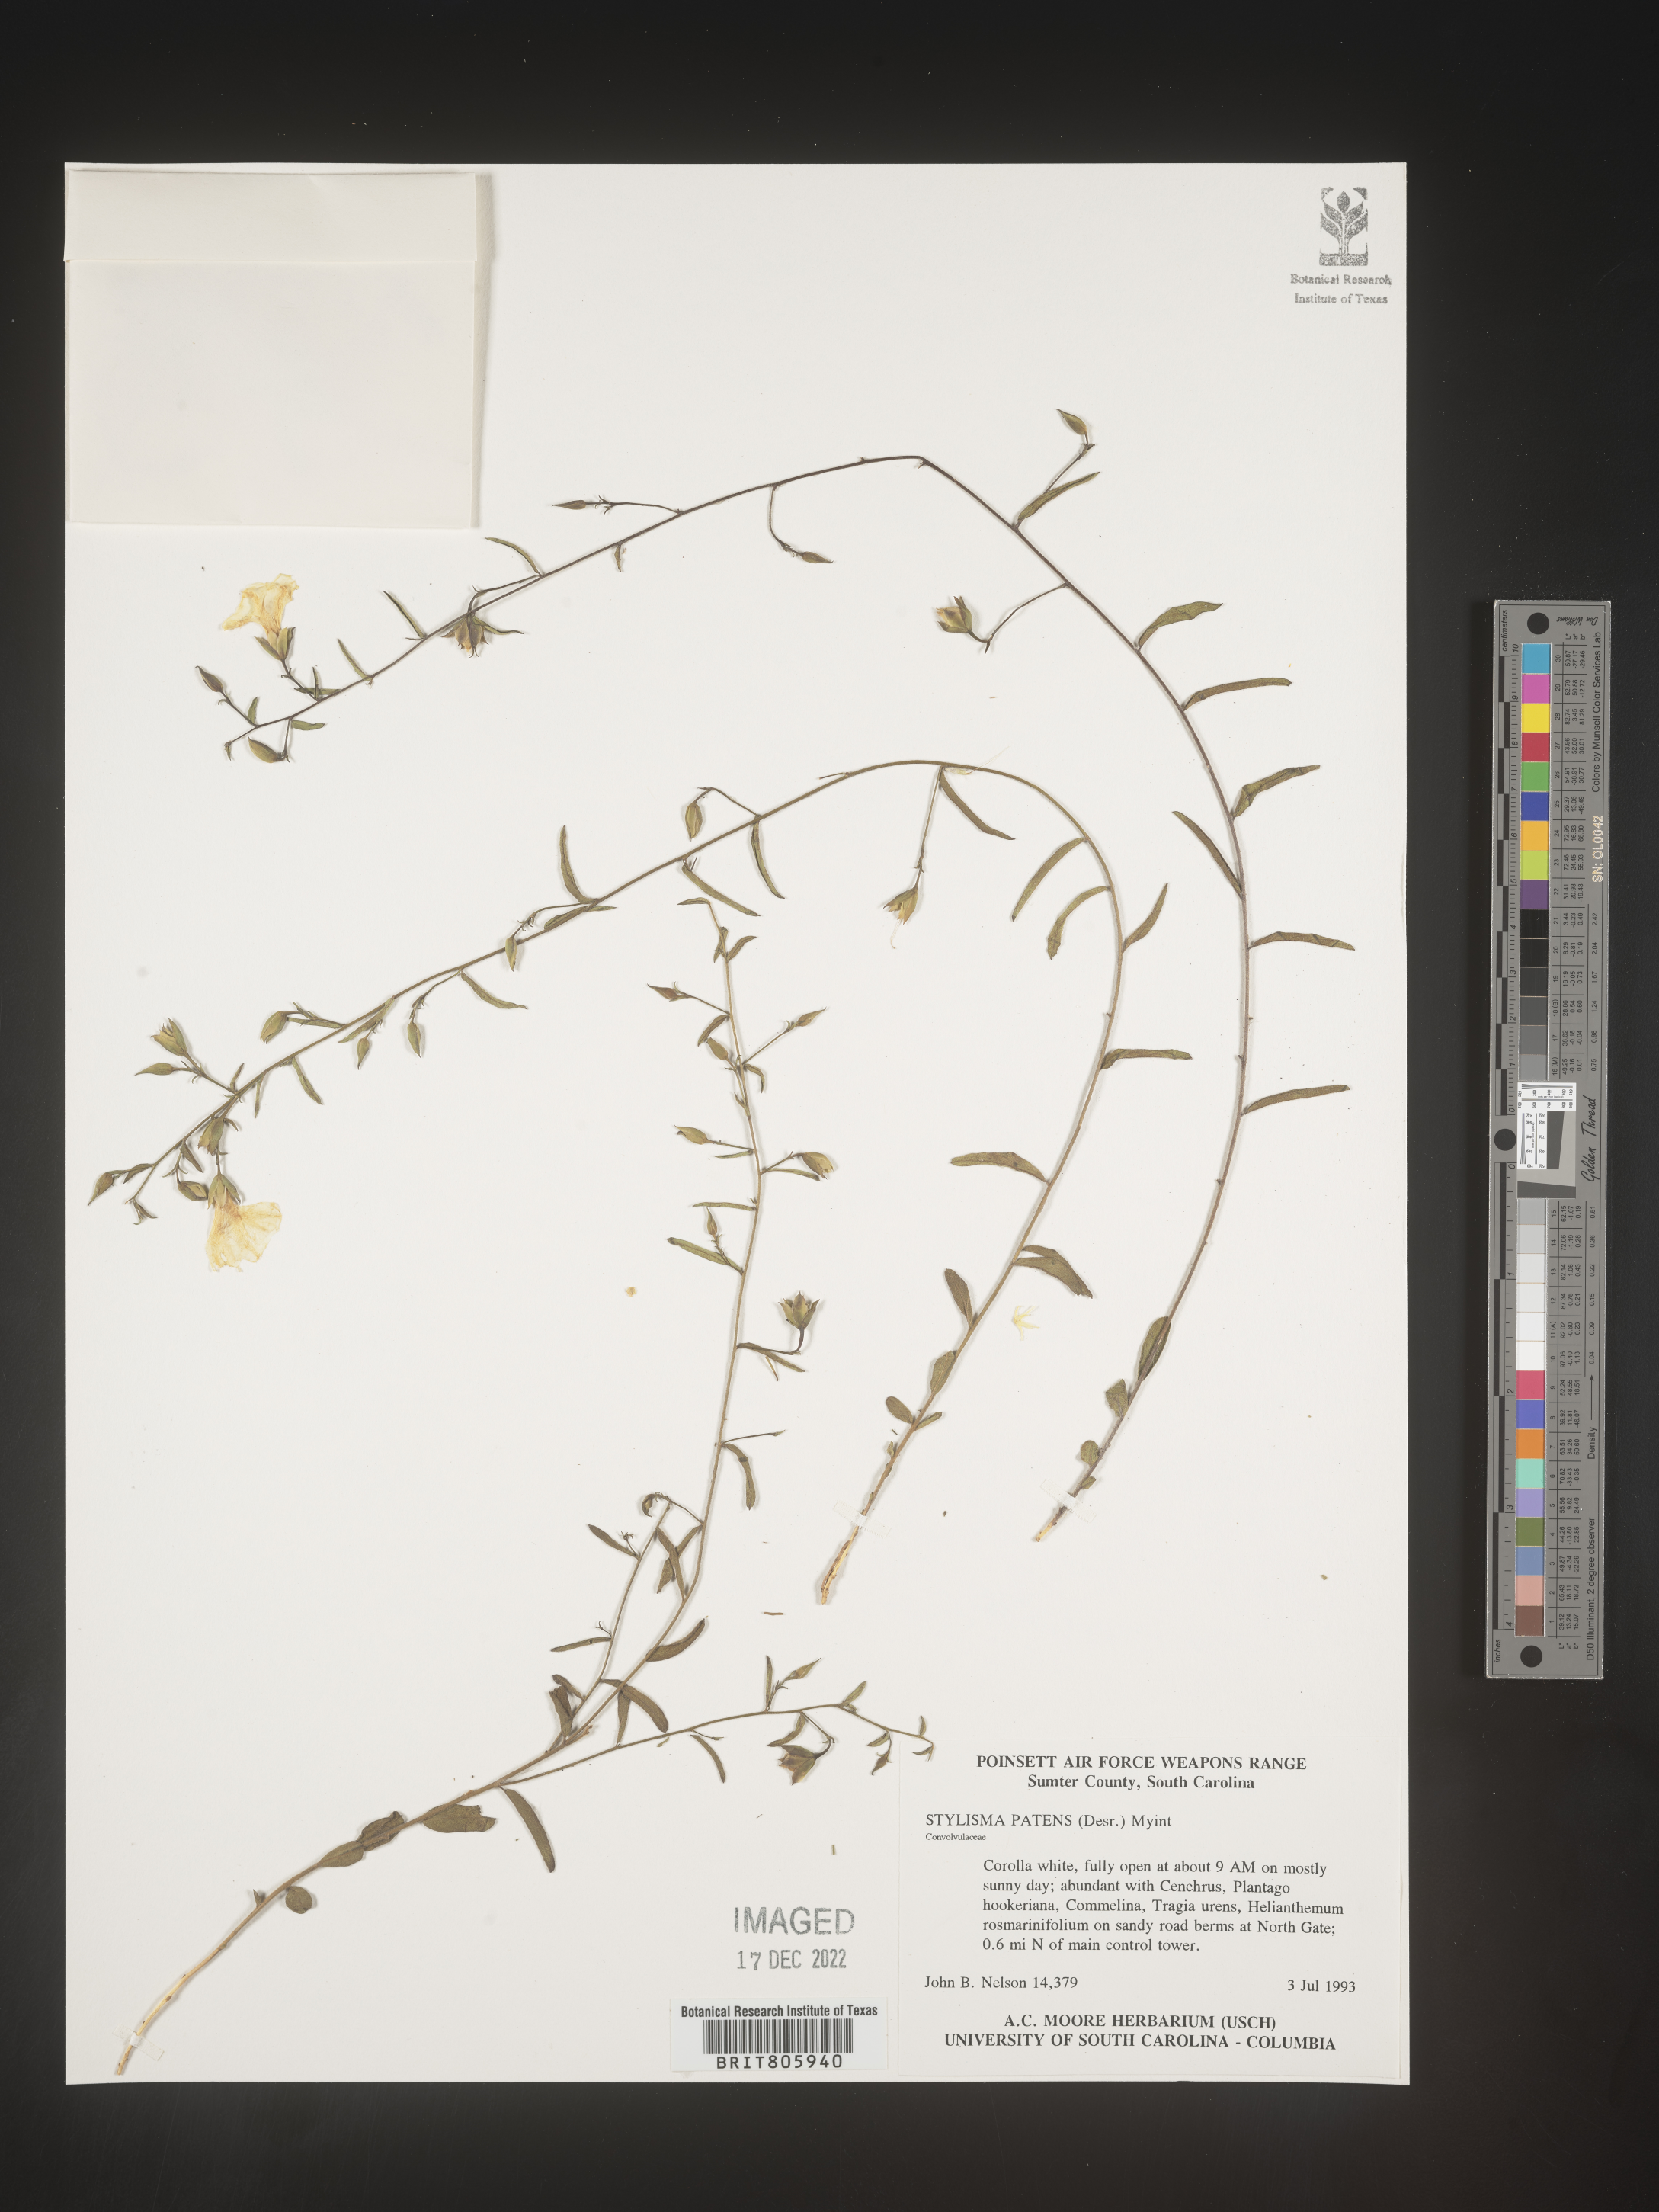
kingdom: Plantae
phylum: Tracheophyta
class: Magnoliopsida
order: Solanales
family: Convolvulaceae
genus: Stylisma
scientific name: Stylisma
